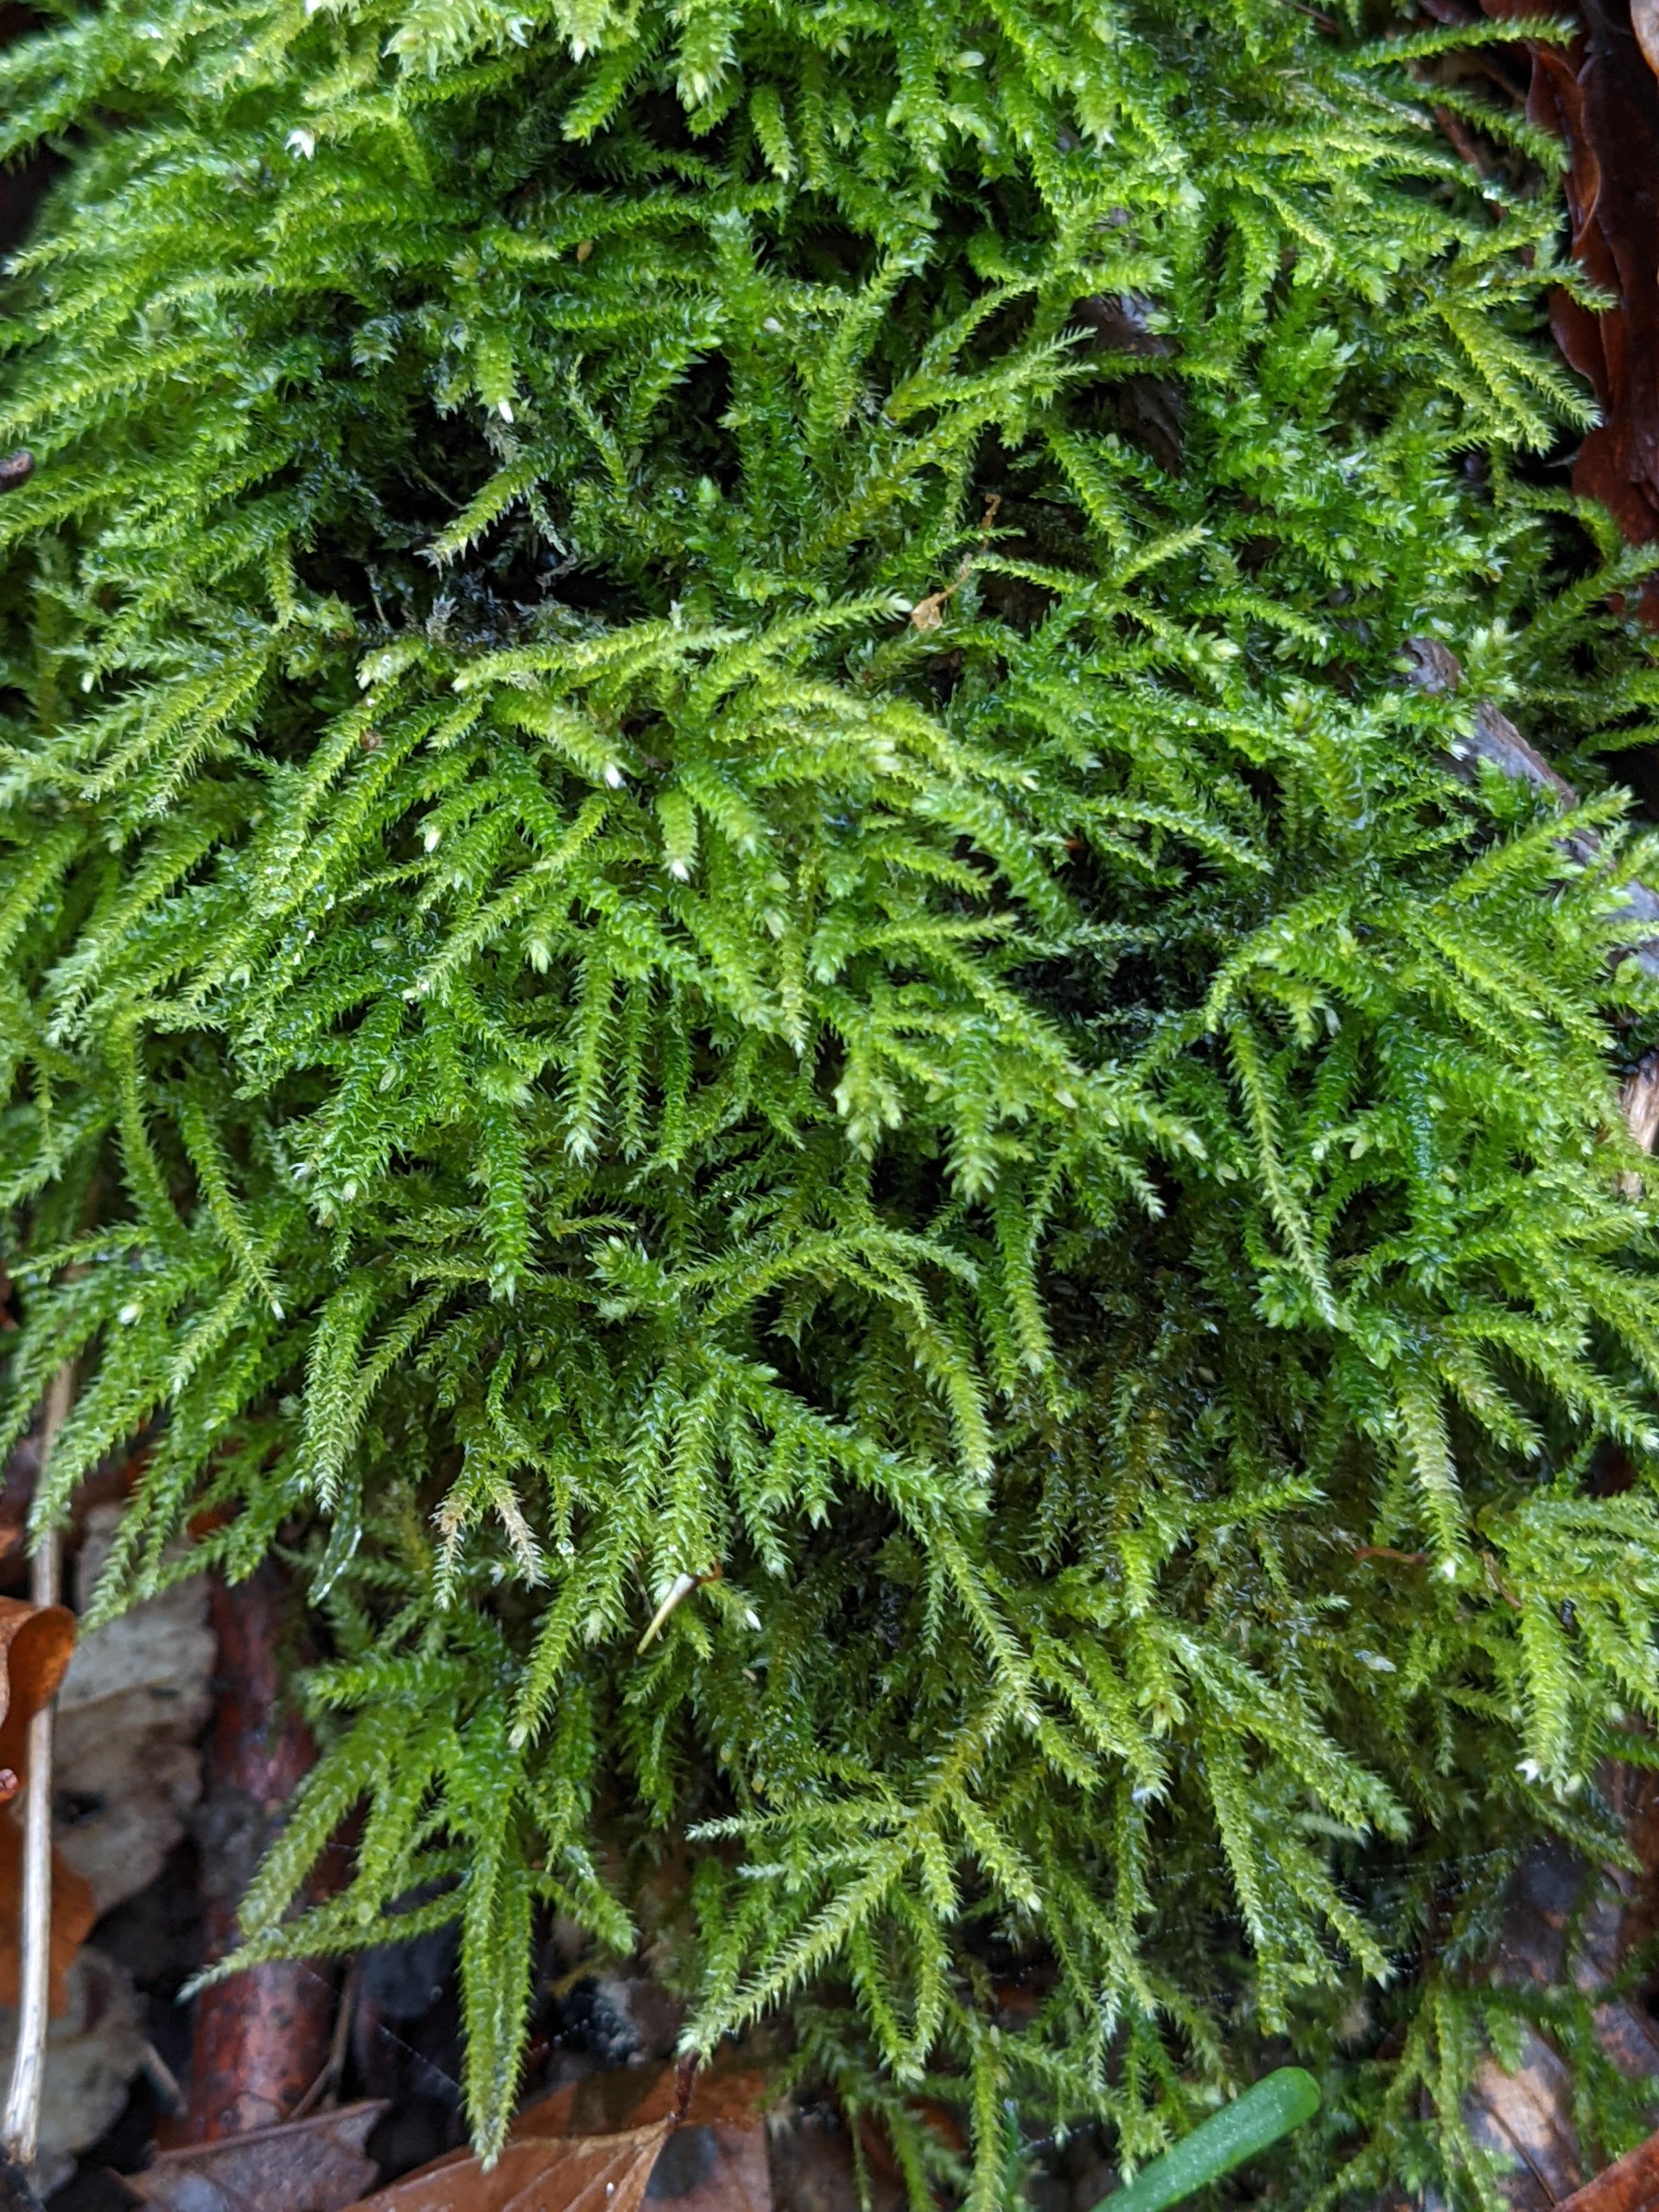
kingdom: Plantae
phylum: Bryophyta
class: Bryopsida
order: Hypnales
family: Brachytheciaceae
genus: Eurhynchium
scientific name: Eurhynchium striatum
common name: Stribet næbmos
